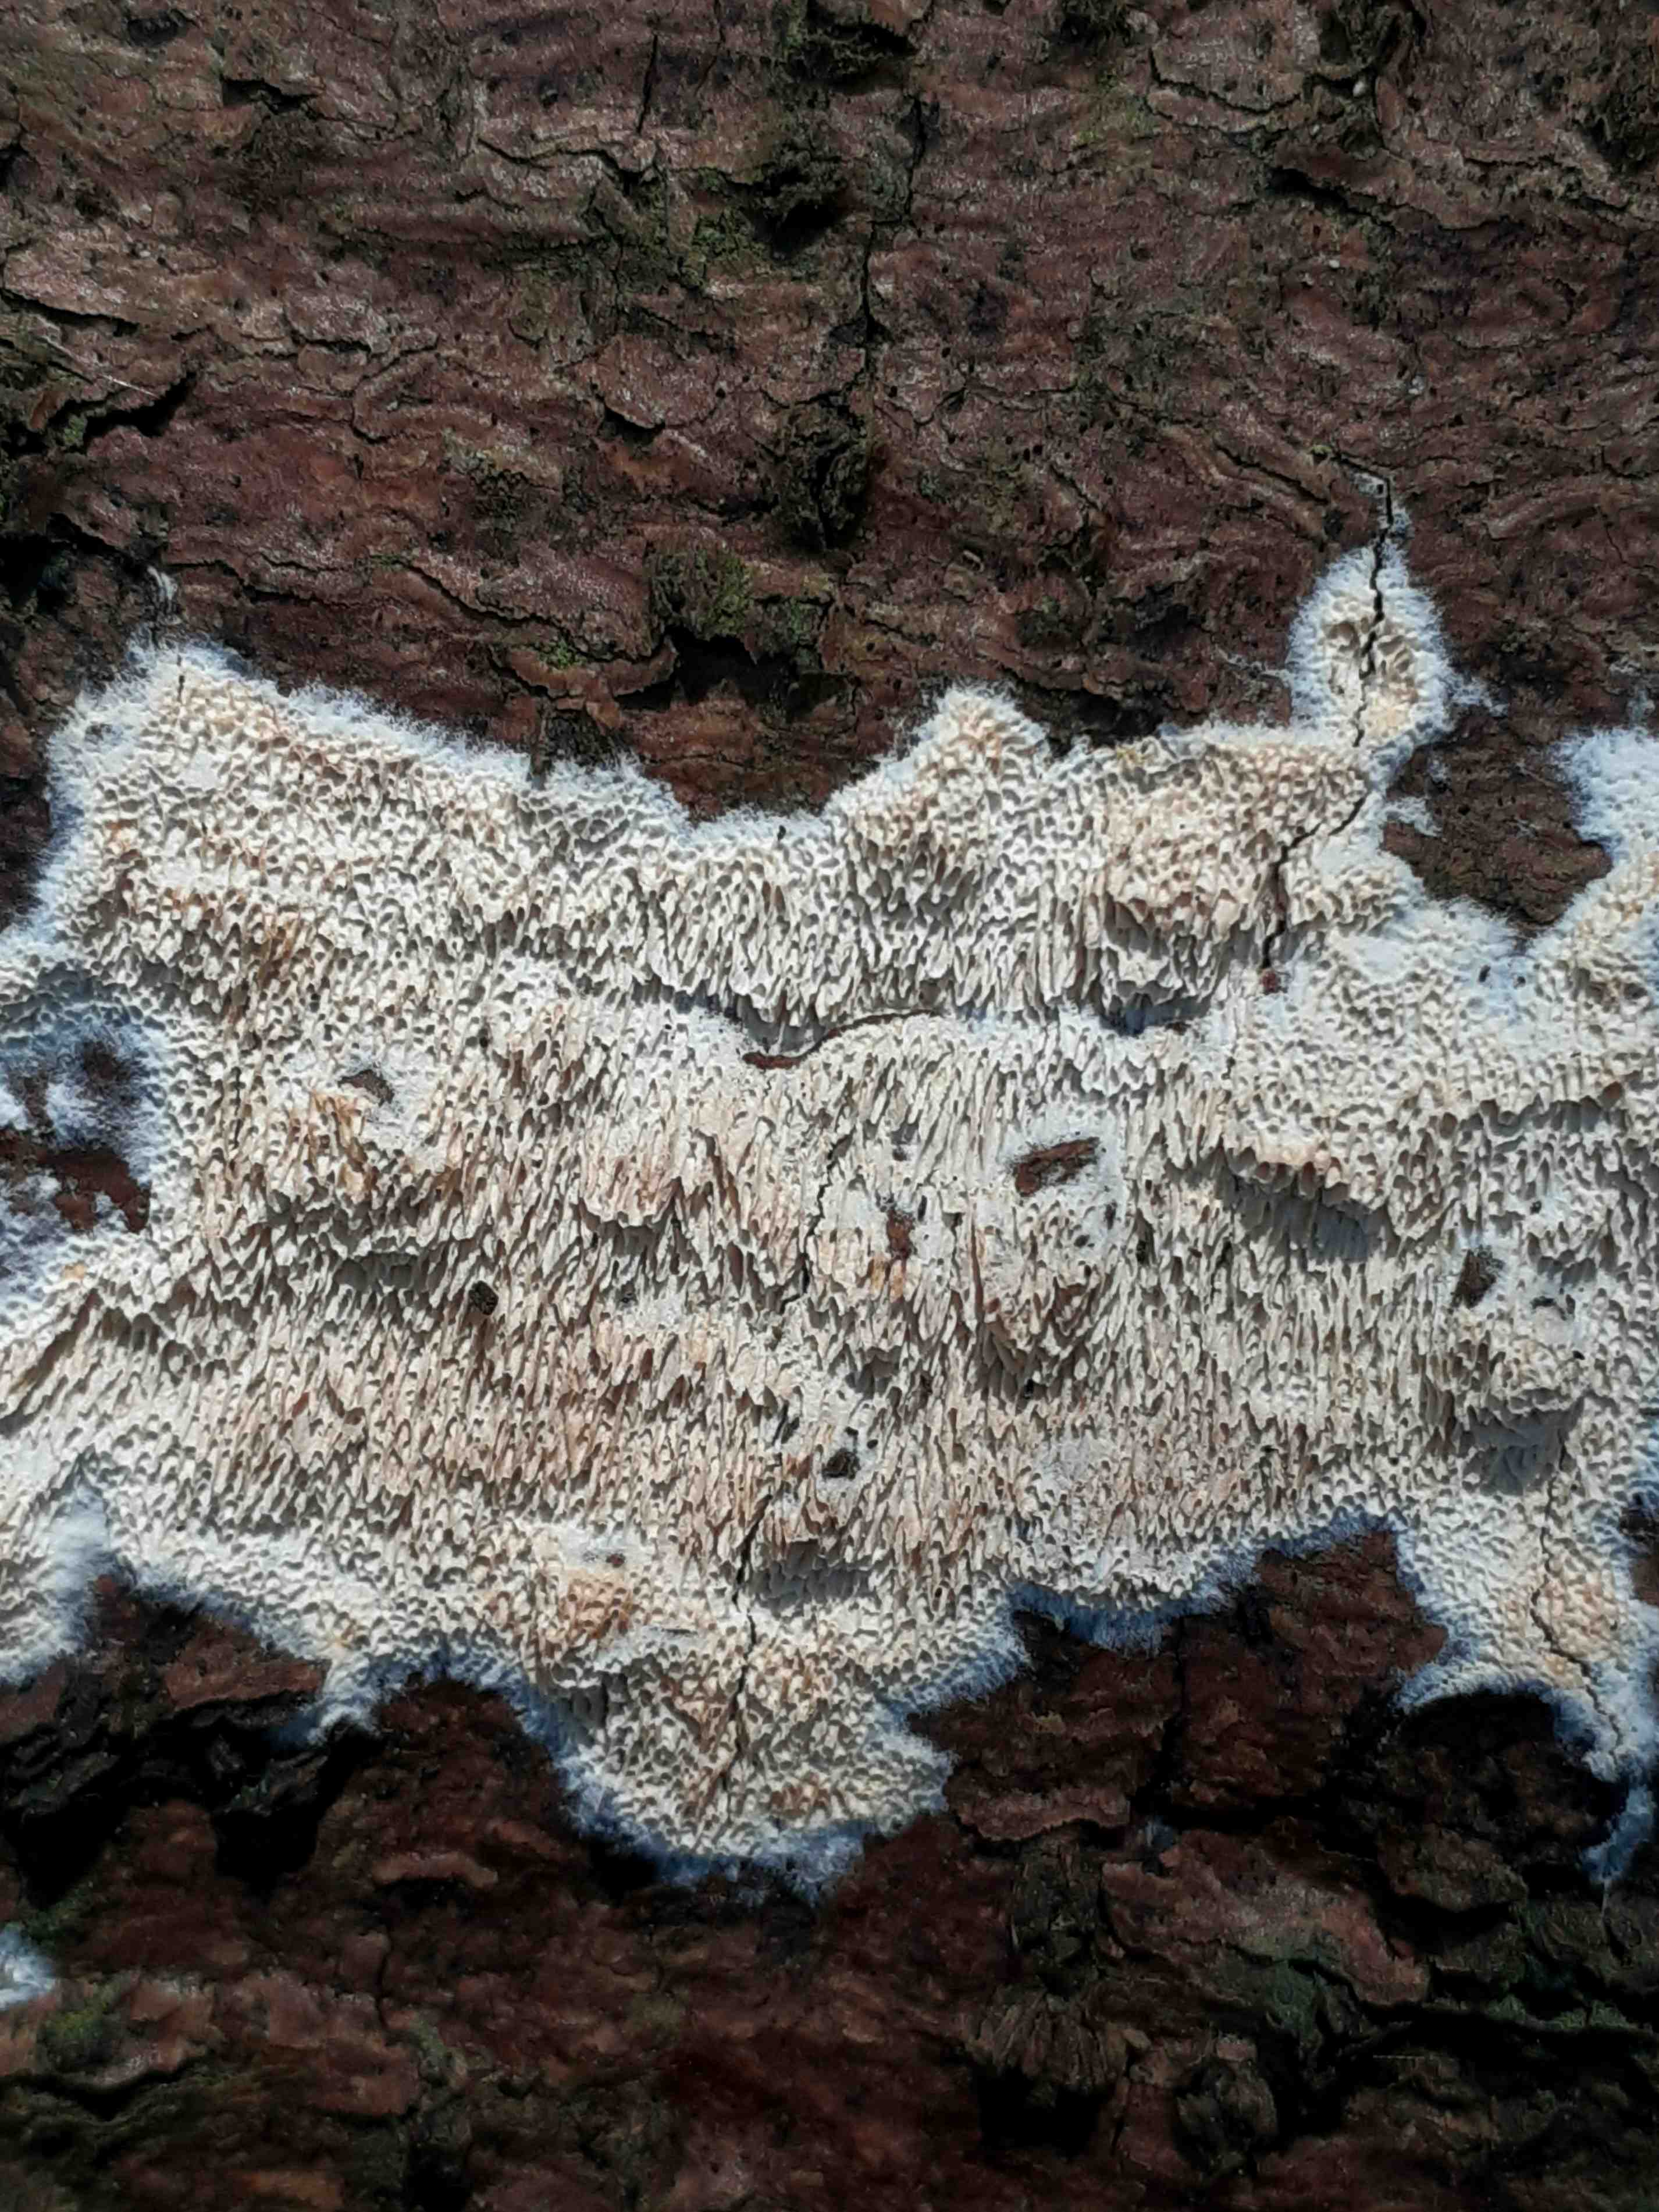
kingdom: Fungi
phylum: Basidiomycota
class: Agaricomycetes
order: Hymenochaetales
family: Schizoporaceae
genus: Schizopora
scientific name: Schizopora paradoxa
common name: hvid tandsvamp
